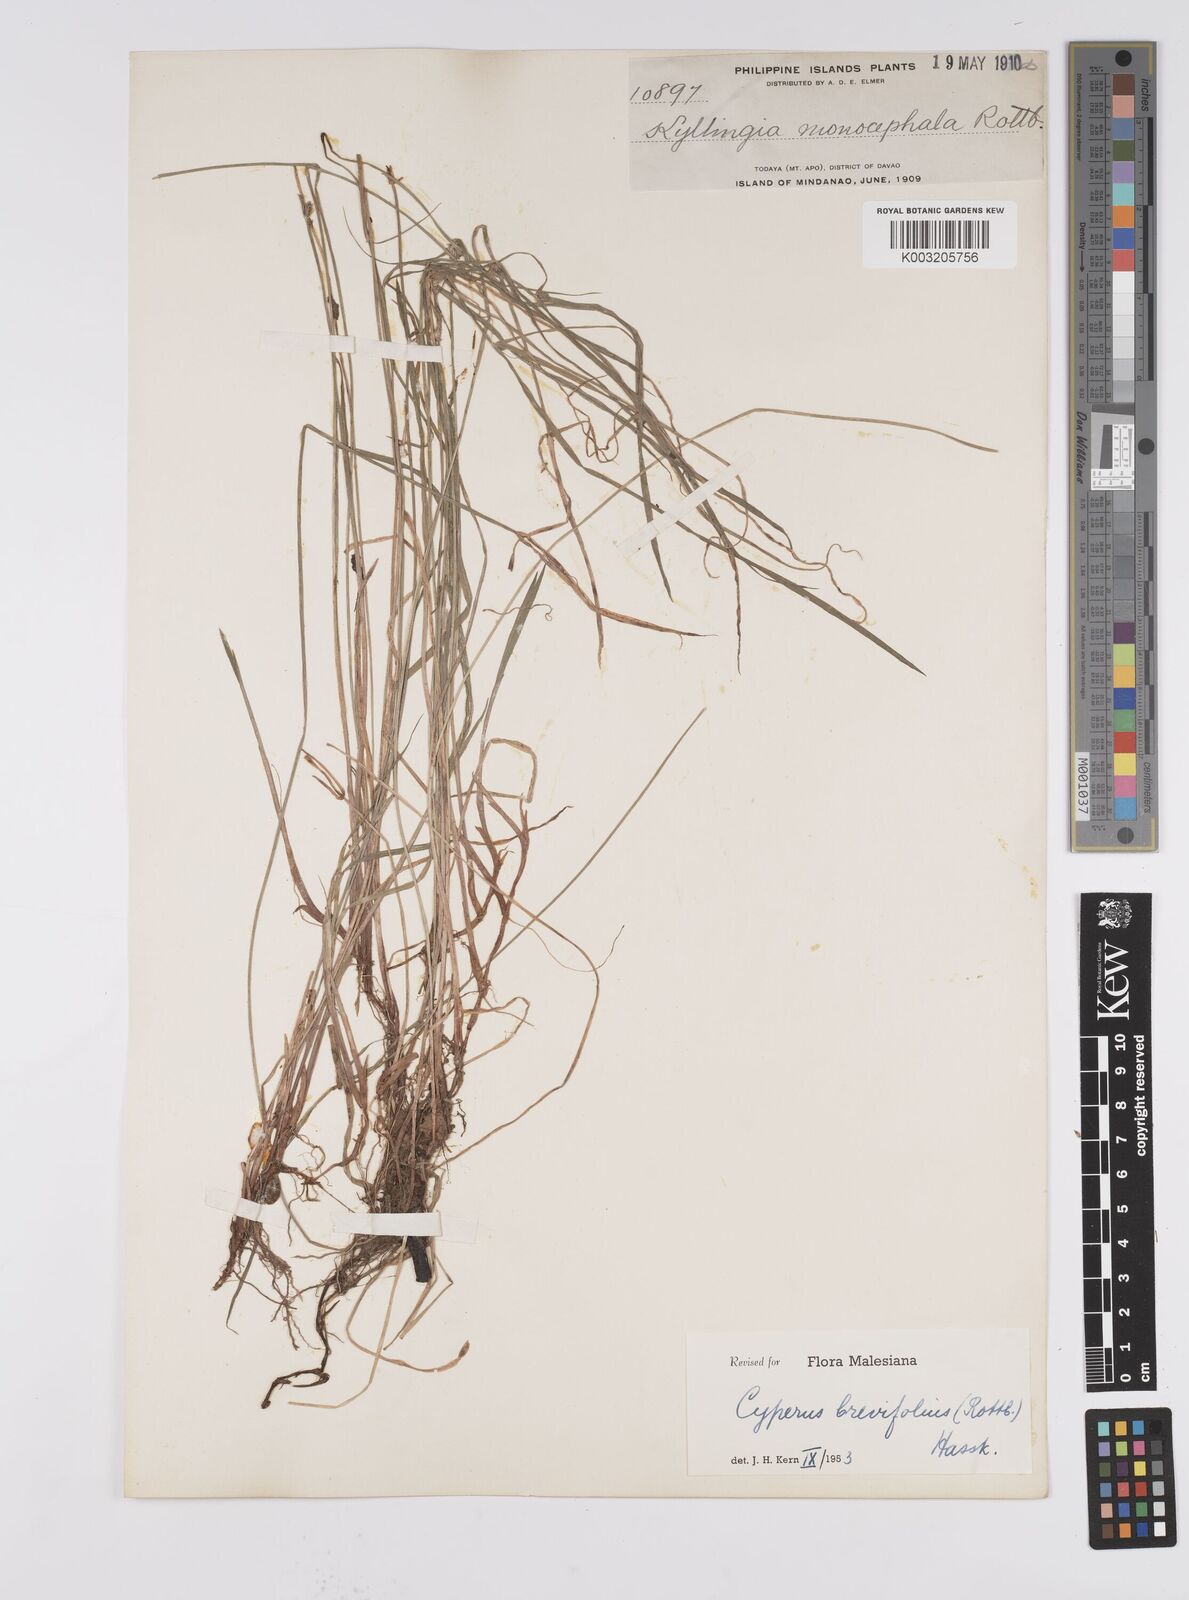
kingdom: Plantae
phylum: Tracheophyta
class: Liliopsida
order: Poales
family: Cyperaceae
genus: Cyperus
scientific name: Cyperus brevifolius
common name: Globe kyllinga
